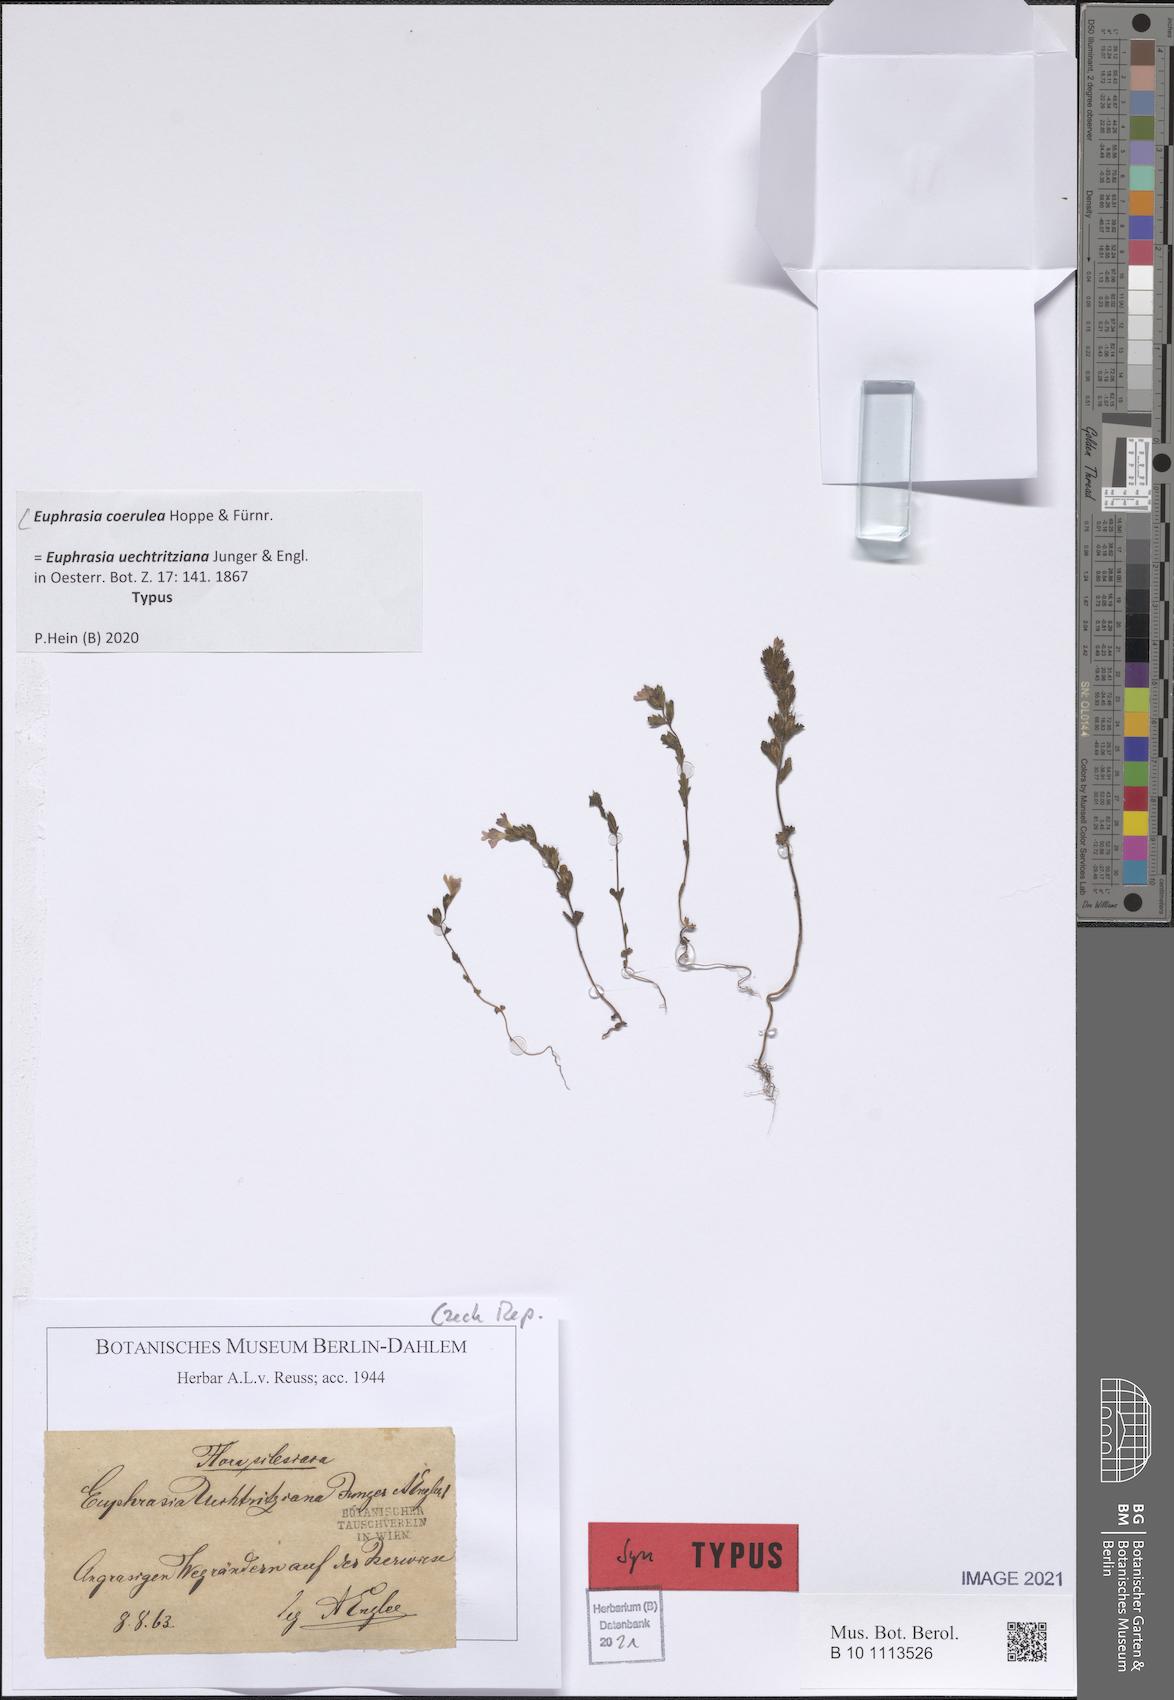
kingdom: Plantae
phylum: Tracheophyta
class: Magnoliopsida
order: Lamiales
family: Orobanchaceae
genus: Euphrasia
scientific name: Euphrasia nemorosa
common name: Common eyebright
